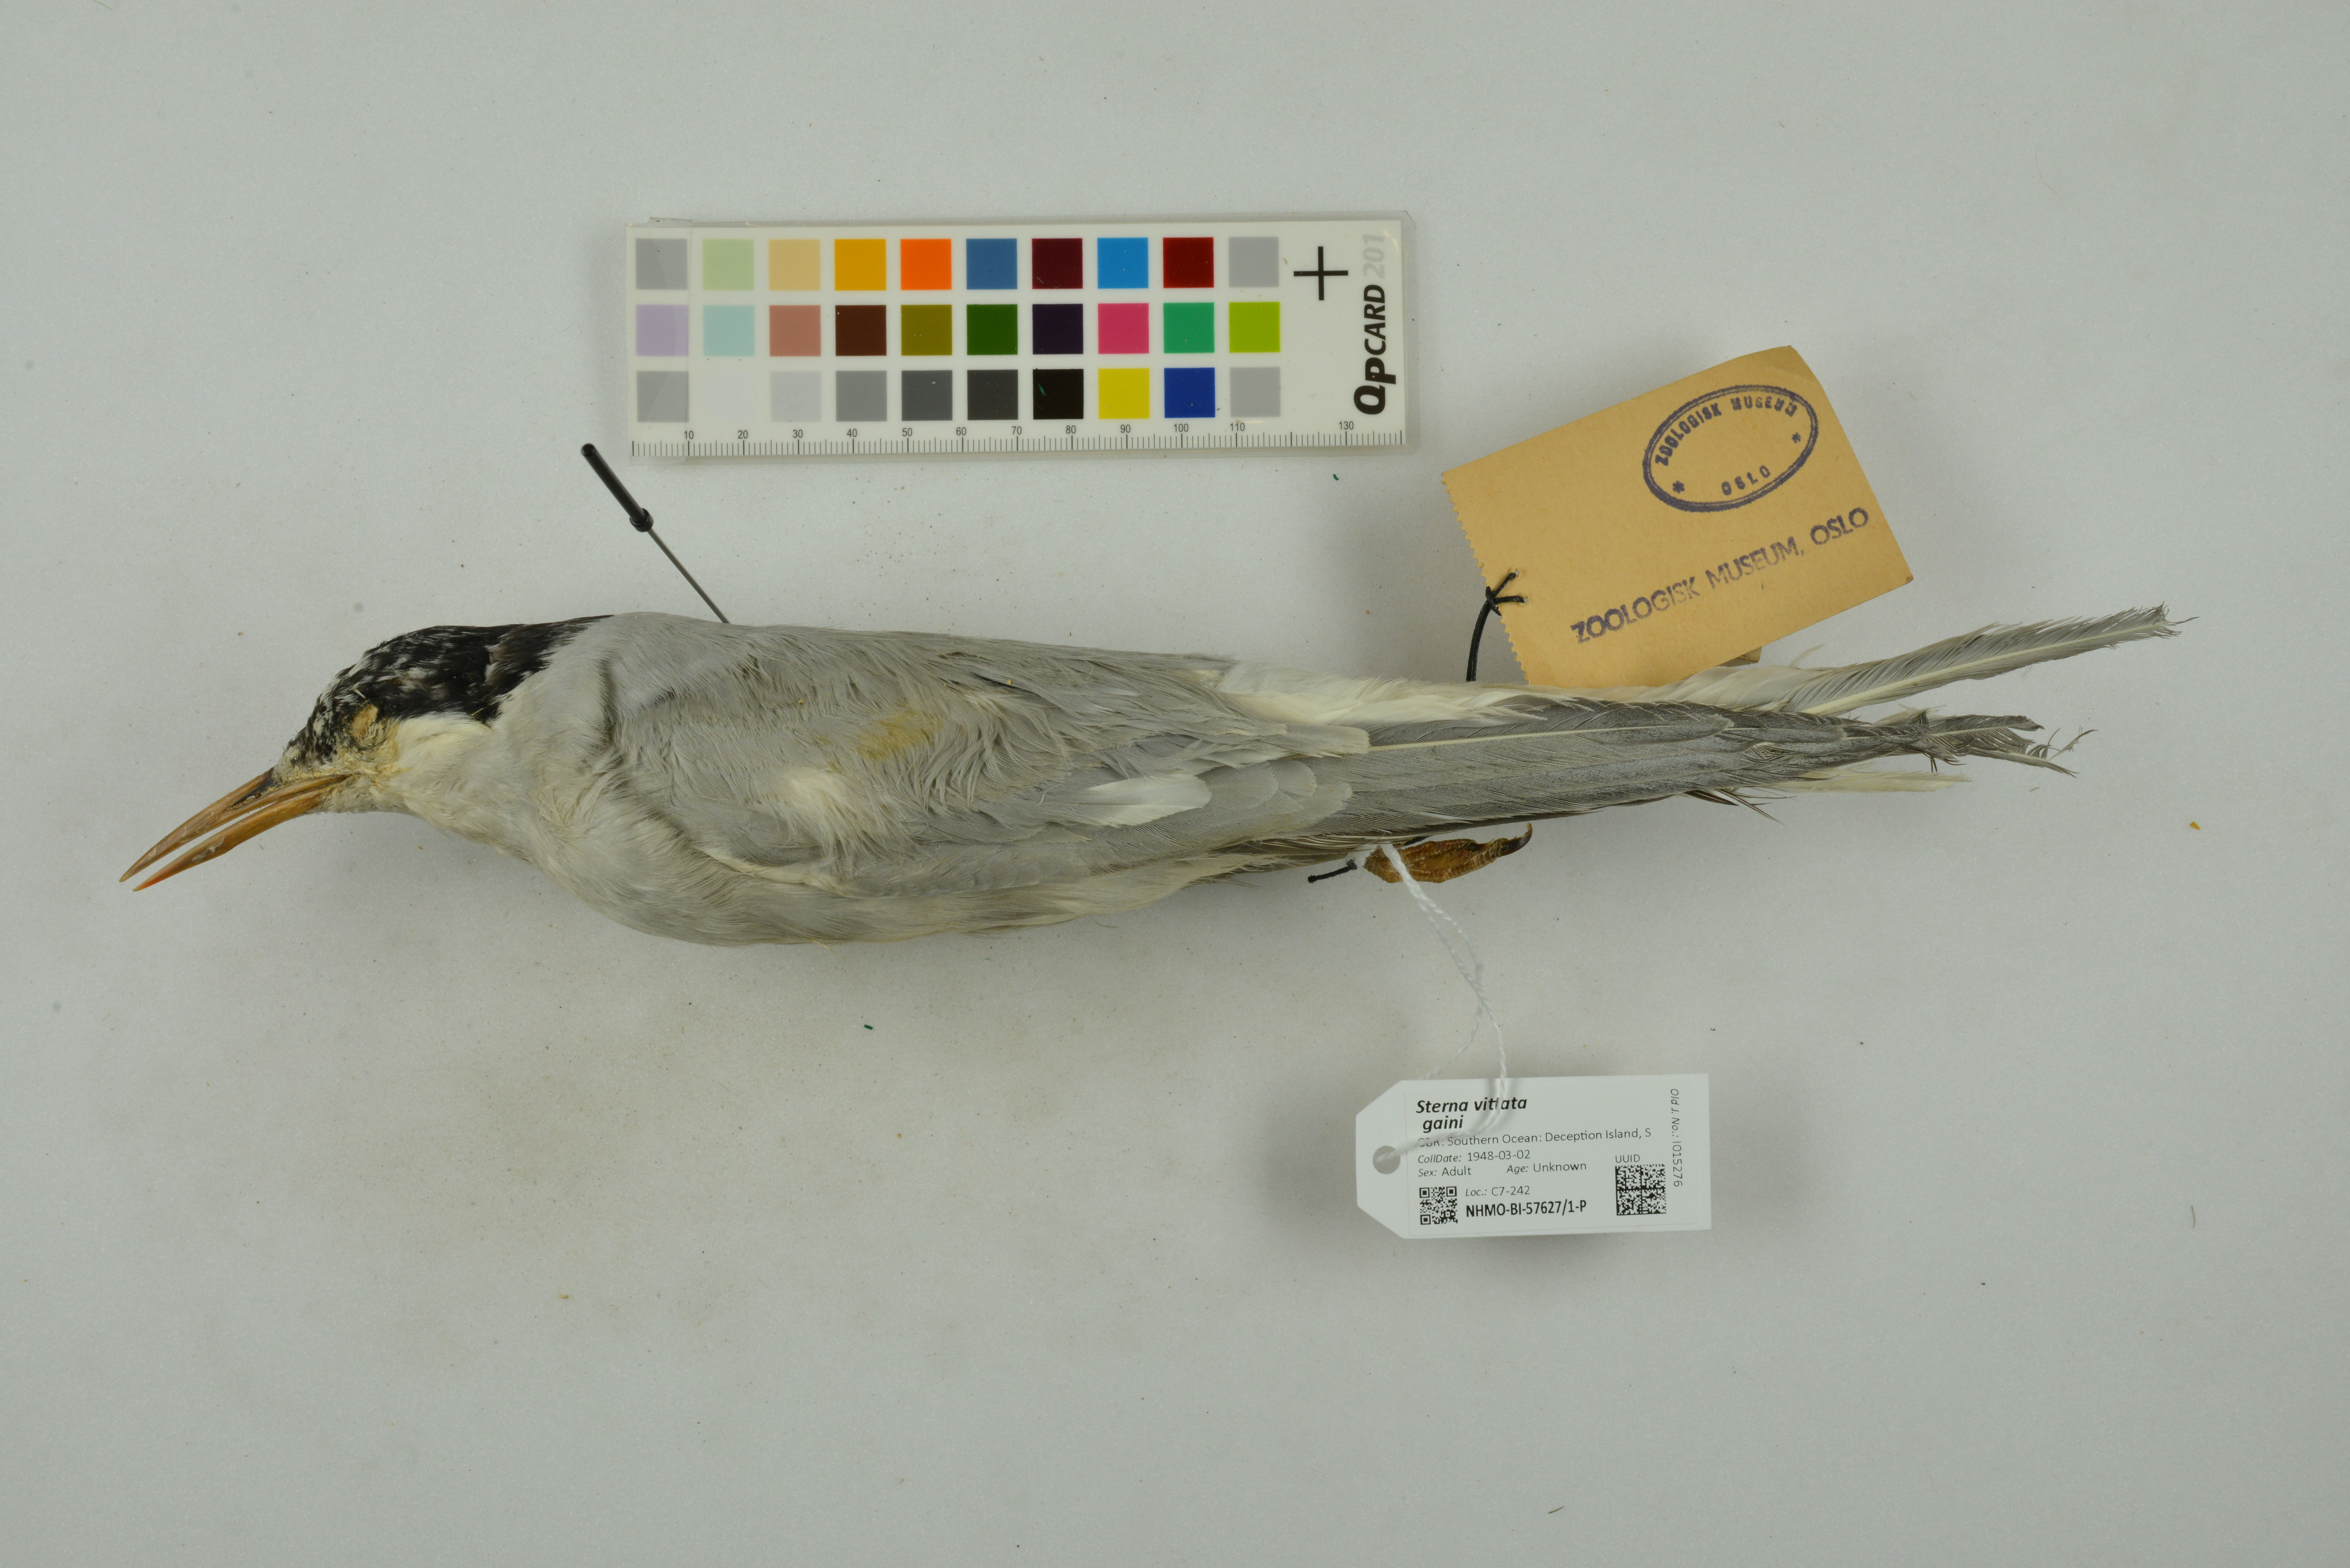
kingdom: Animalia
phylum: Chordata
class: Aves
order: Charadriiformes
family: Laridae
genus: Sterna
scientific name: Sterna vittata
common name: Antarctic tern
